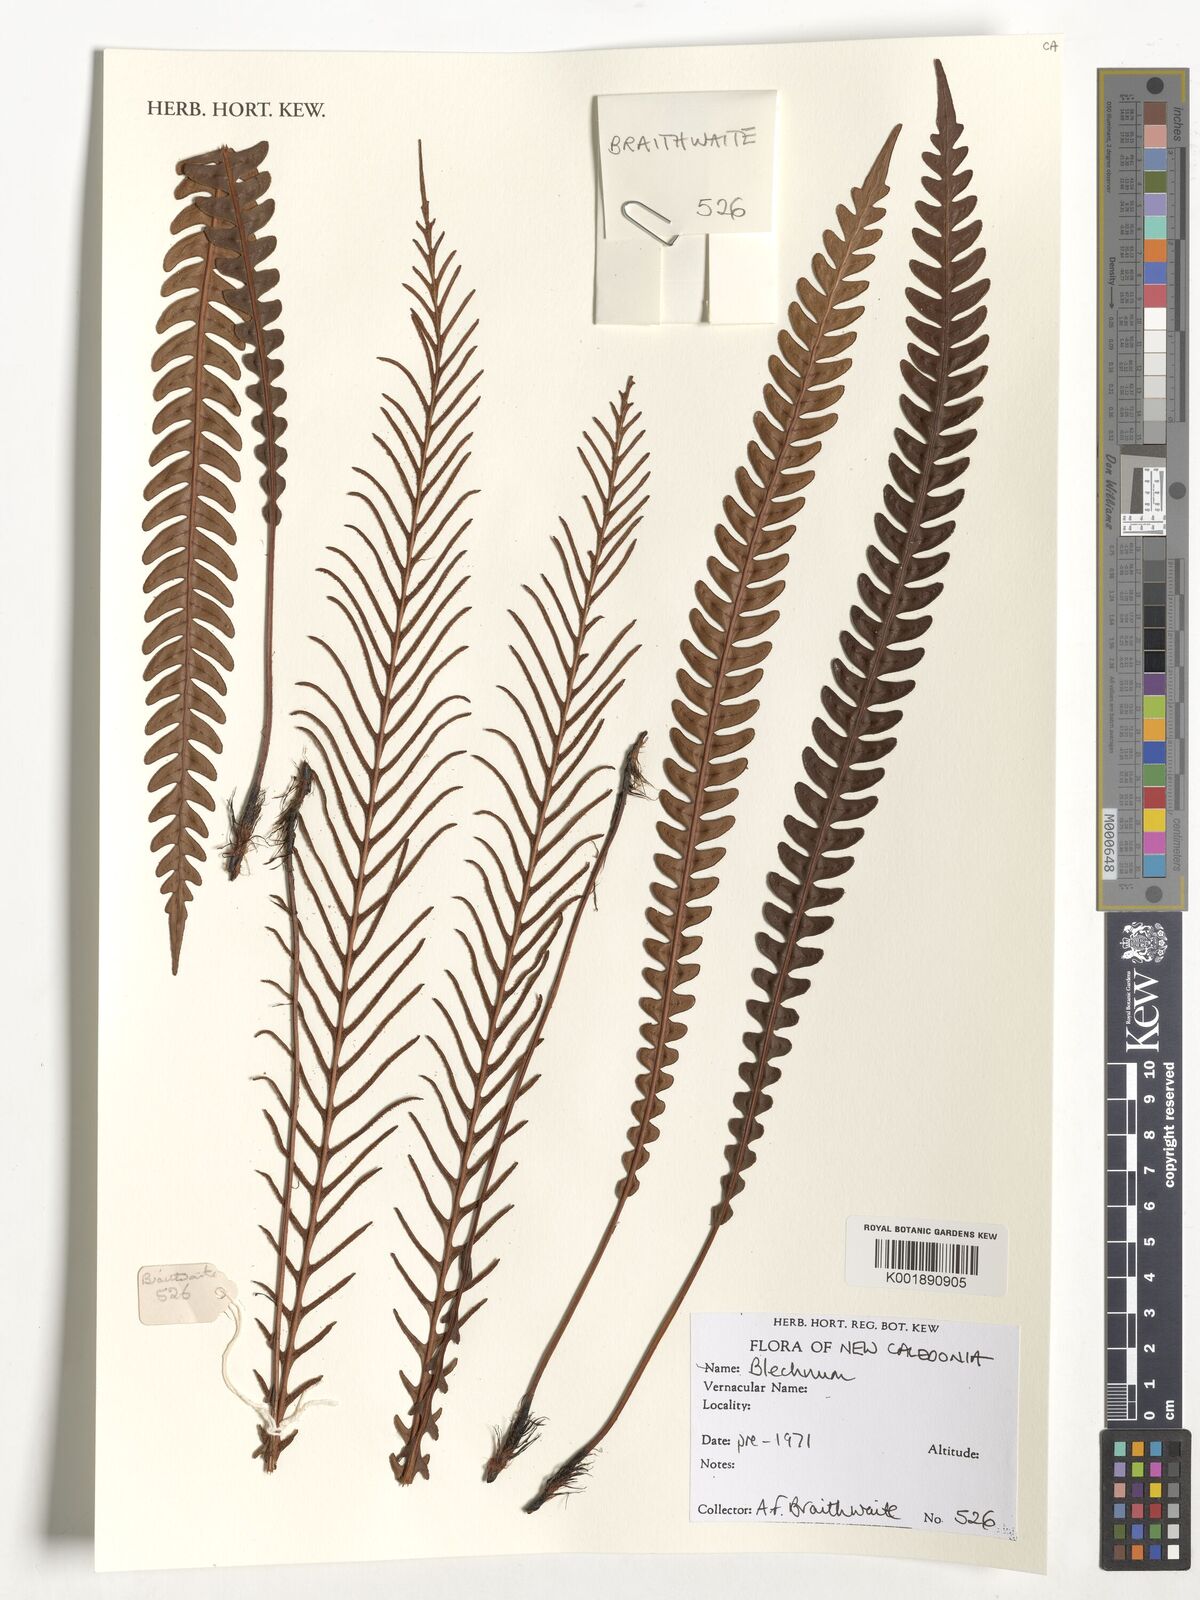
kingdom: Plantae
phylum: Tracheophyta
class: Polypodiopsida
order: Polypodiales
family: Blechnaceae
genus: Blechnum
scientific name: Blechnum
